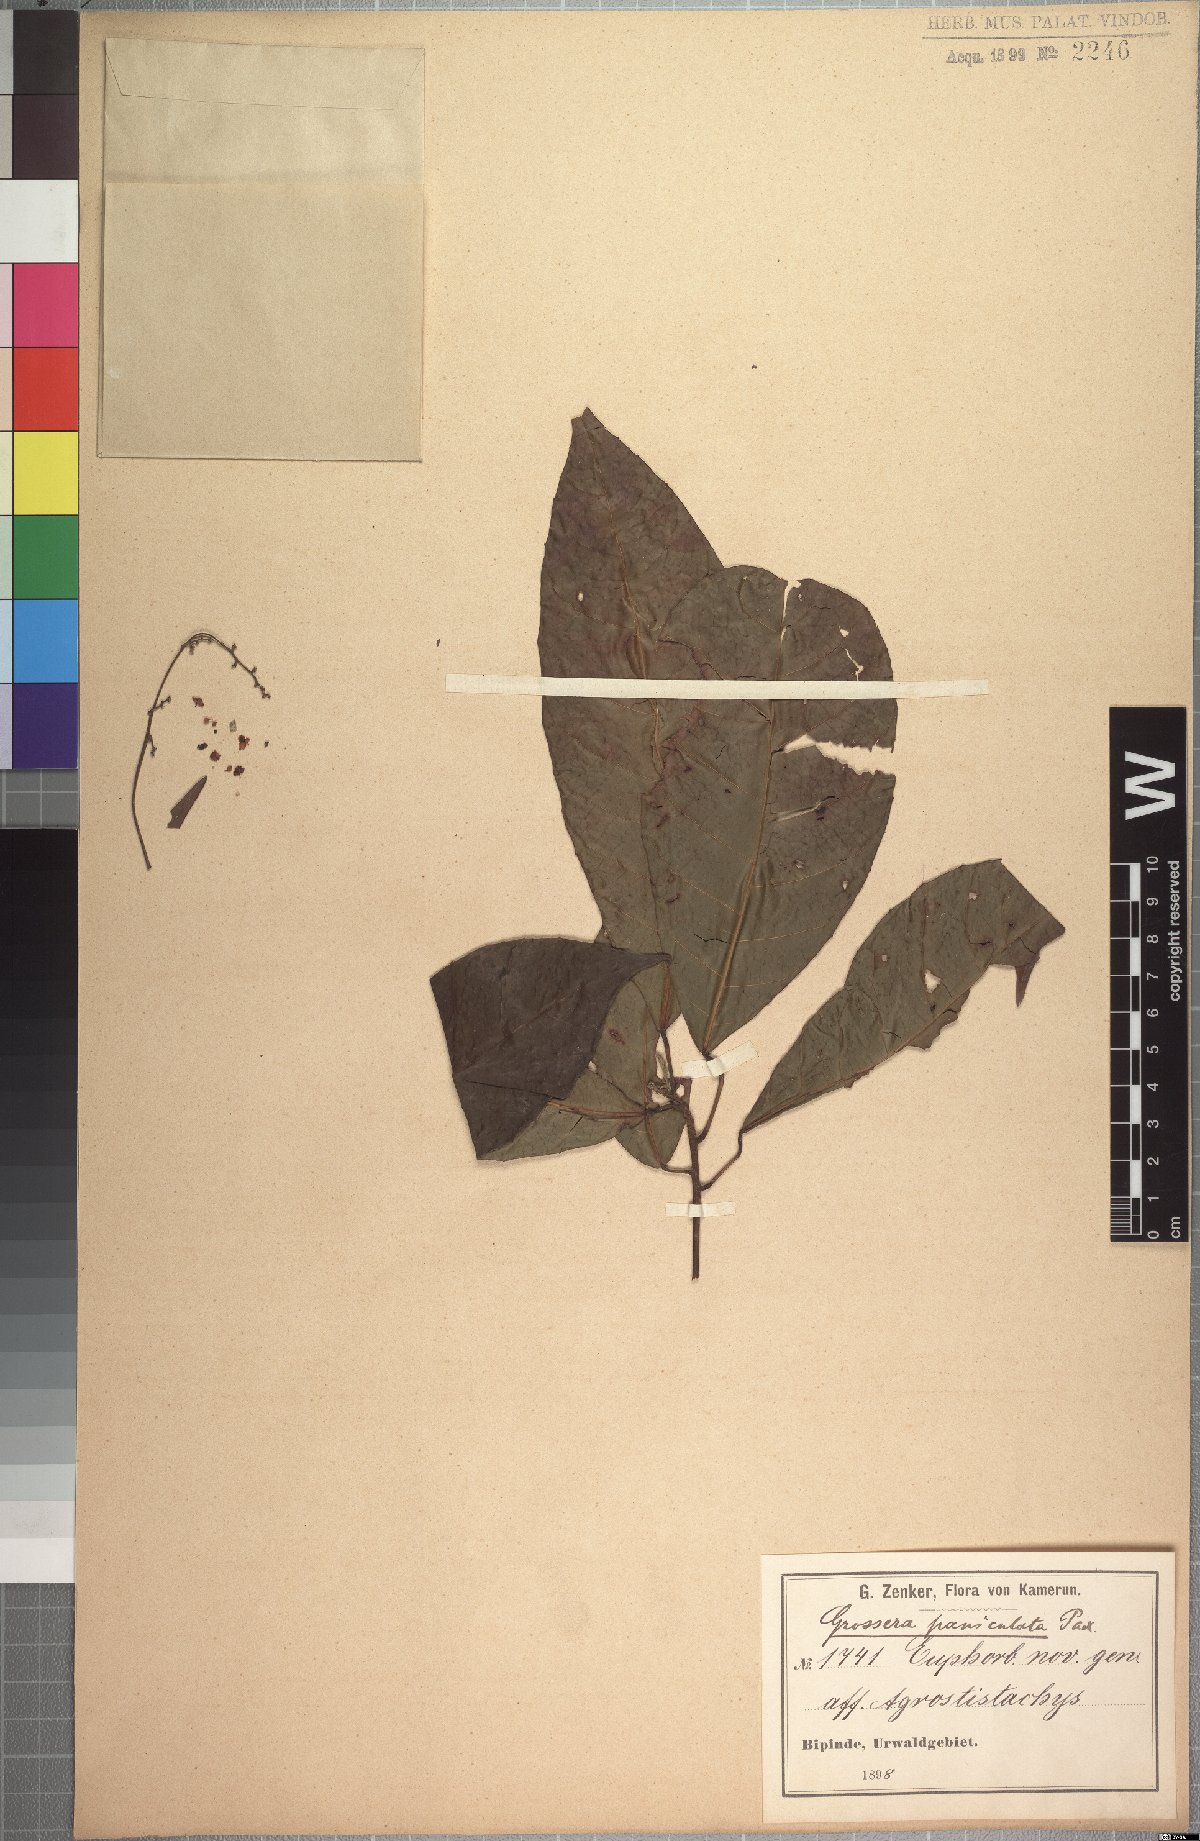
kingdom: Plantae
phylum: Tracheophyta
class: Magnoliopsida
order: Malpighiales
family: Euphorbiaceae
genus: Grossera
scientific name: Grossera paniculata
